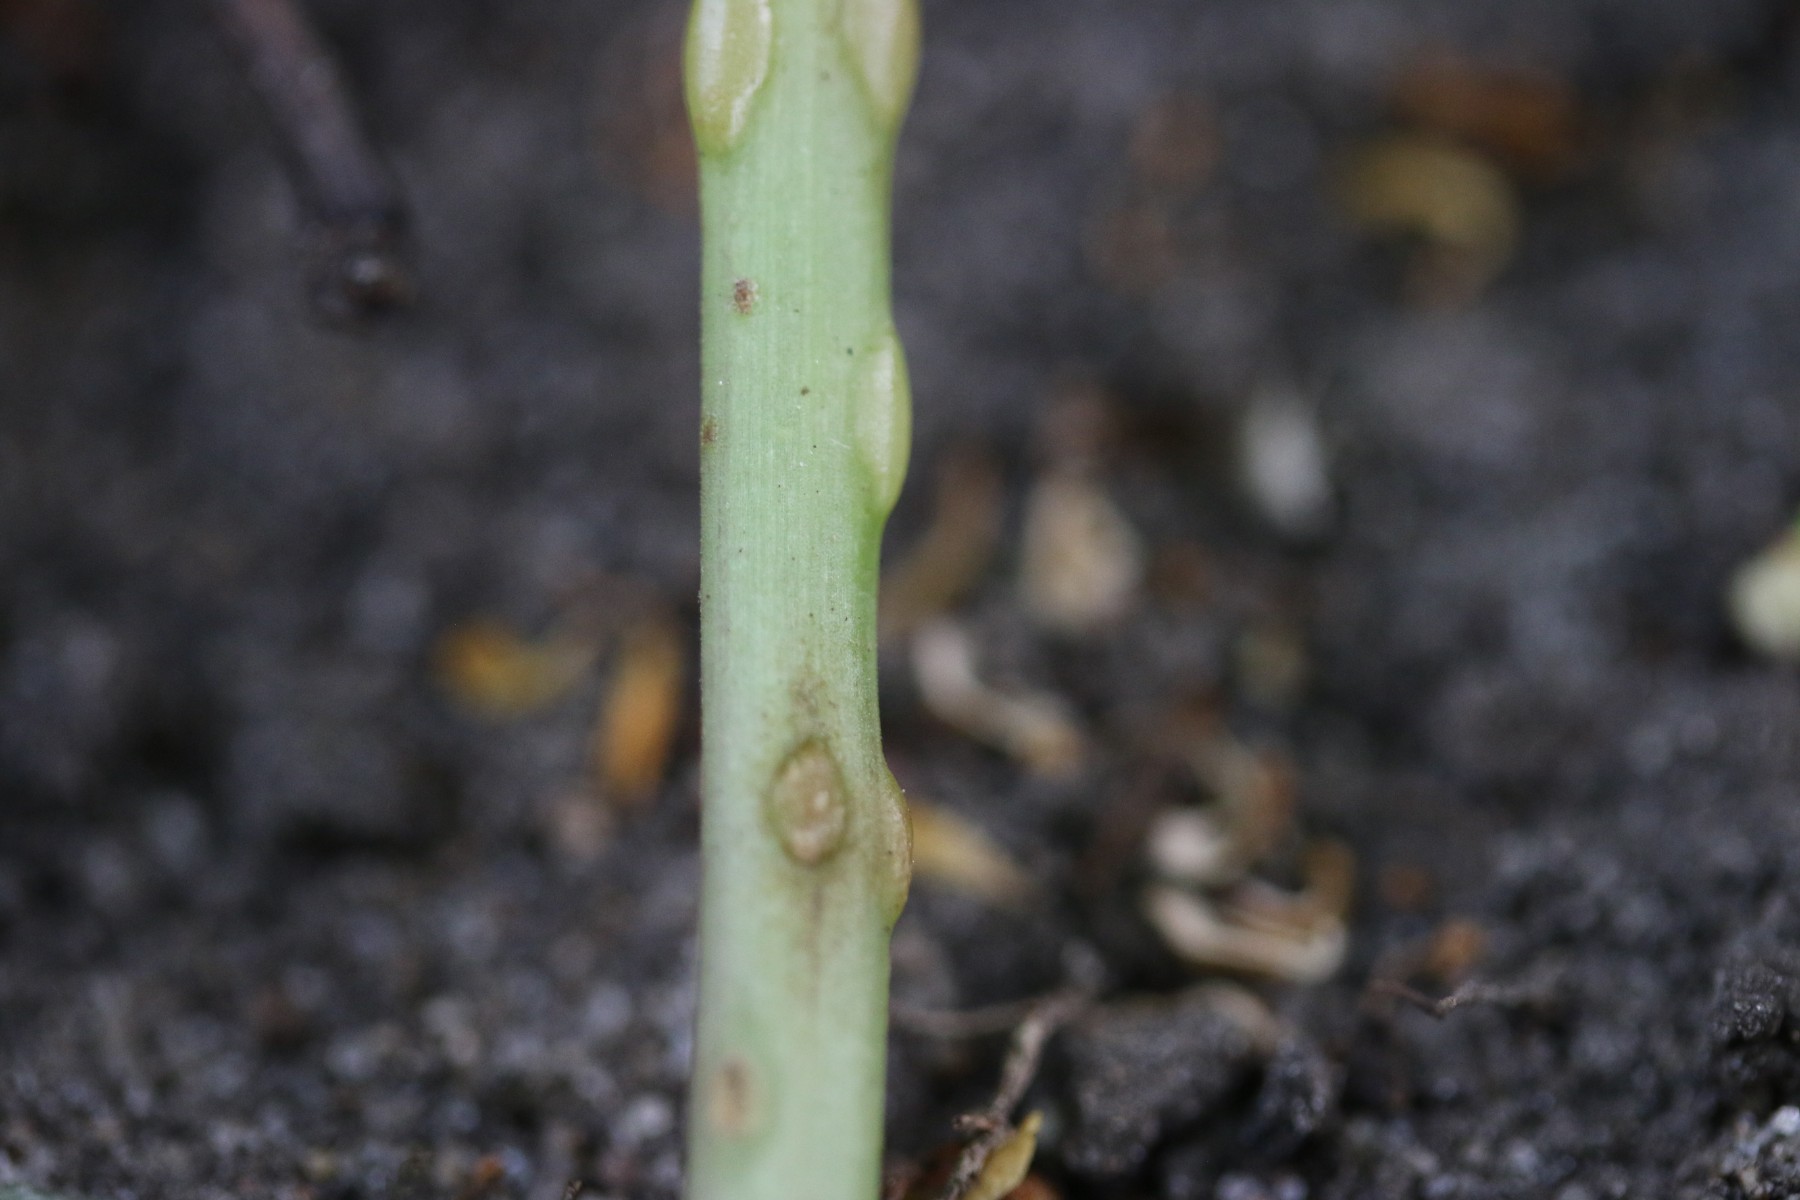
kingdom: Fungi
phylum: Ascomycota
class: Taphrinomycetes
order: Taphrinales
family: Taphrinaceae
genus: Protomyces
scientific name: Protomyces macrosporus
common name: skvalderkål-vablesæk
